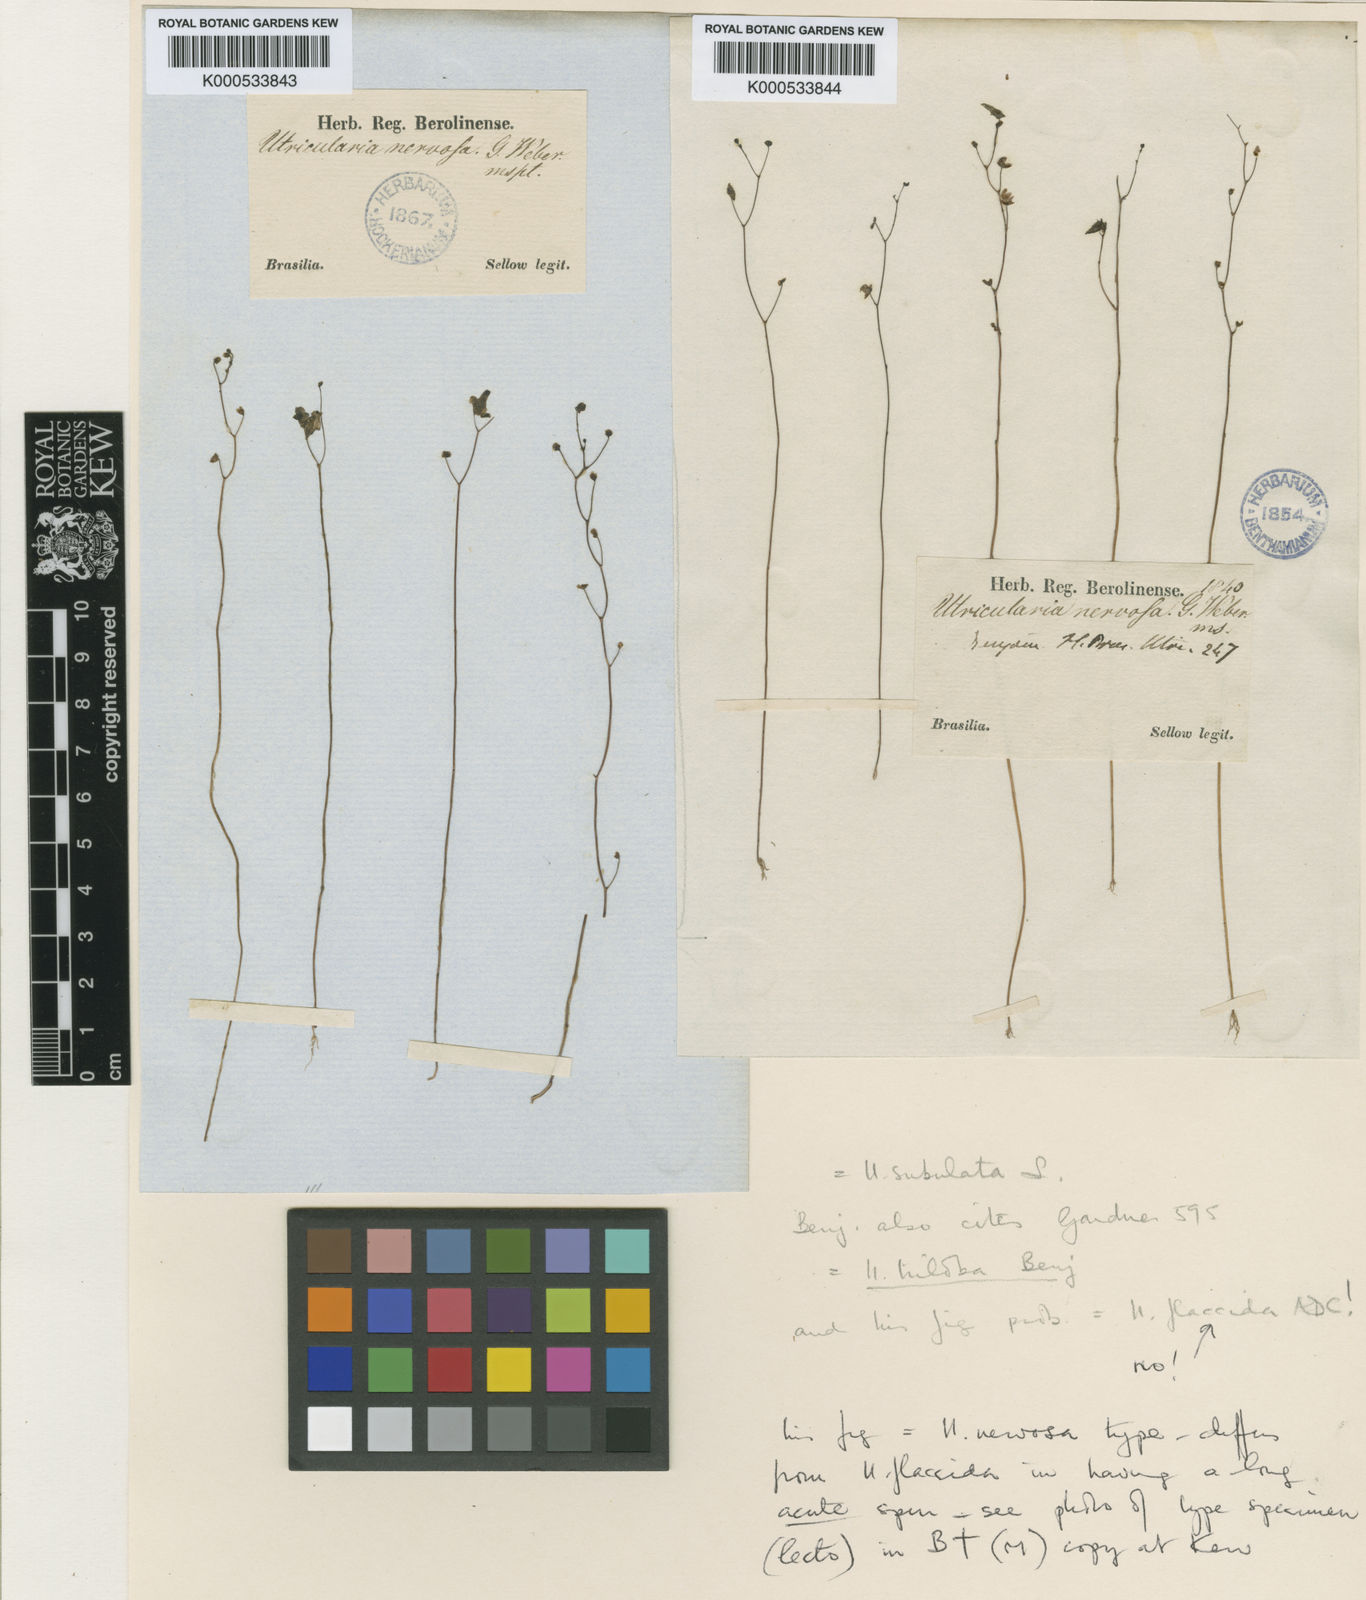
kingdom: Plantae
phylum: Tracheophyta
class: Magnoliopsida
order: Lamiales
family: Lentibulariaceae
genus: Utricularia
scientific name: Utricularia subulata
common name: Tiny bladderwort
